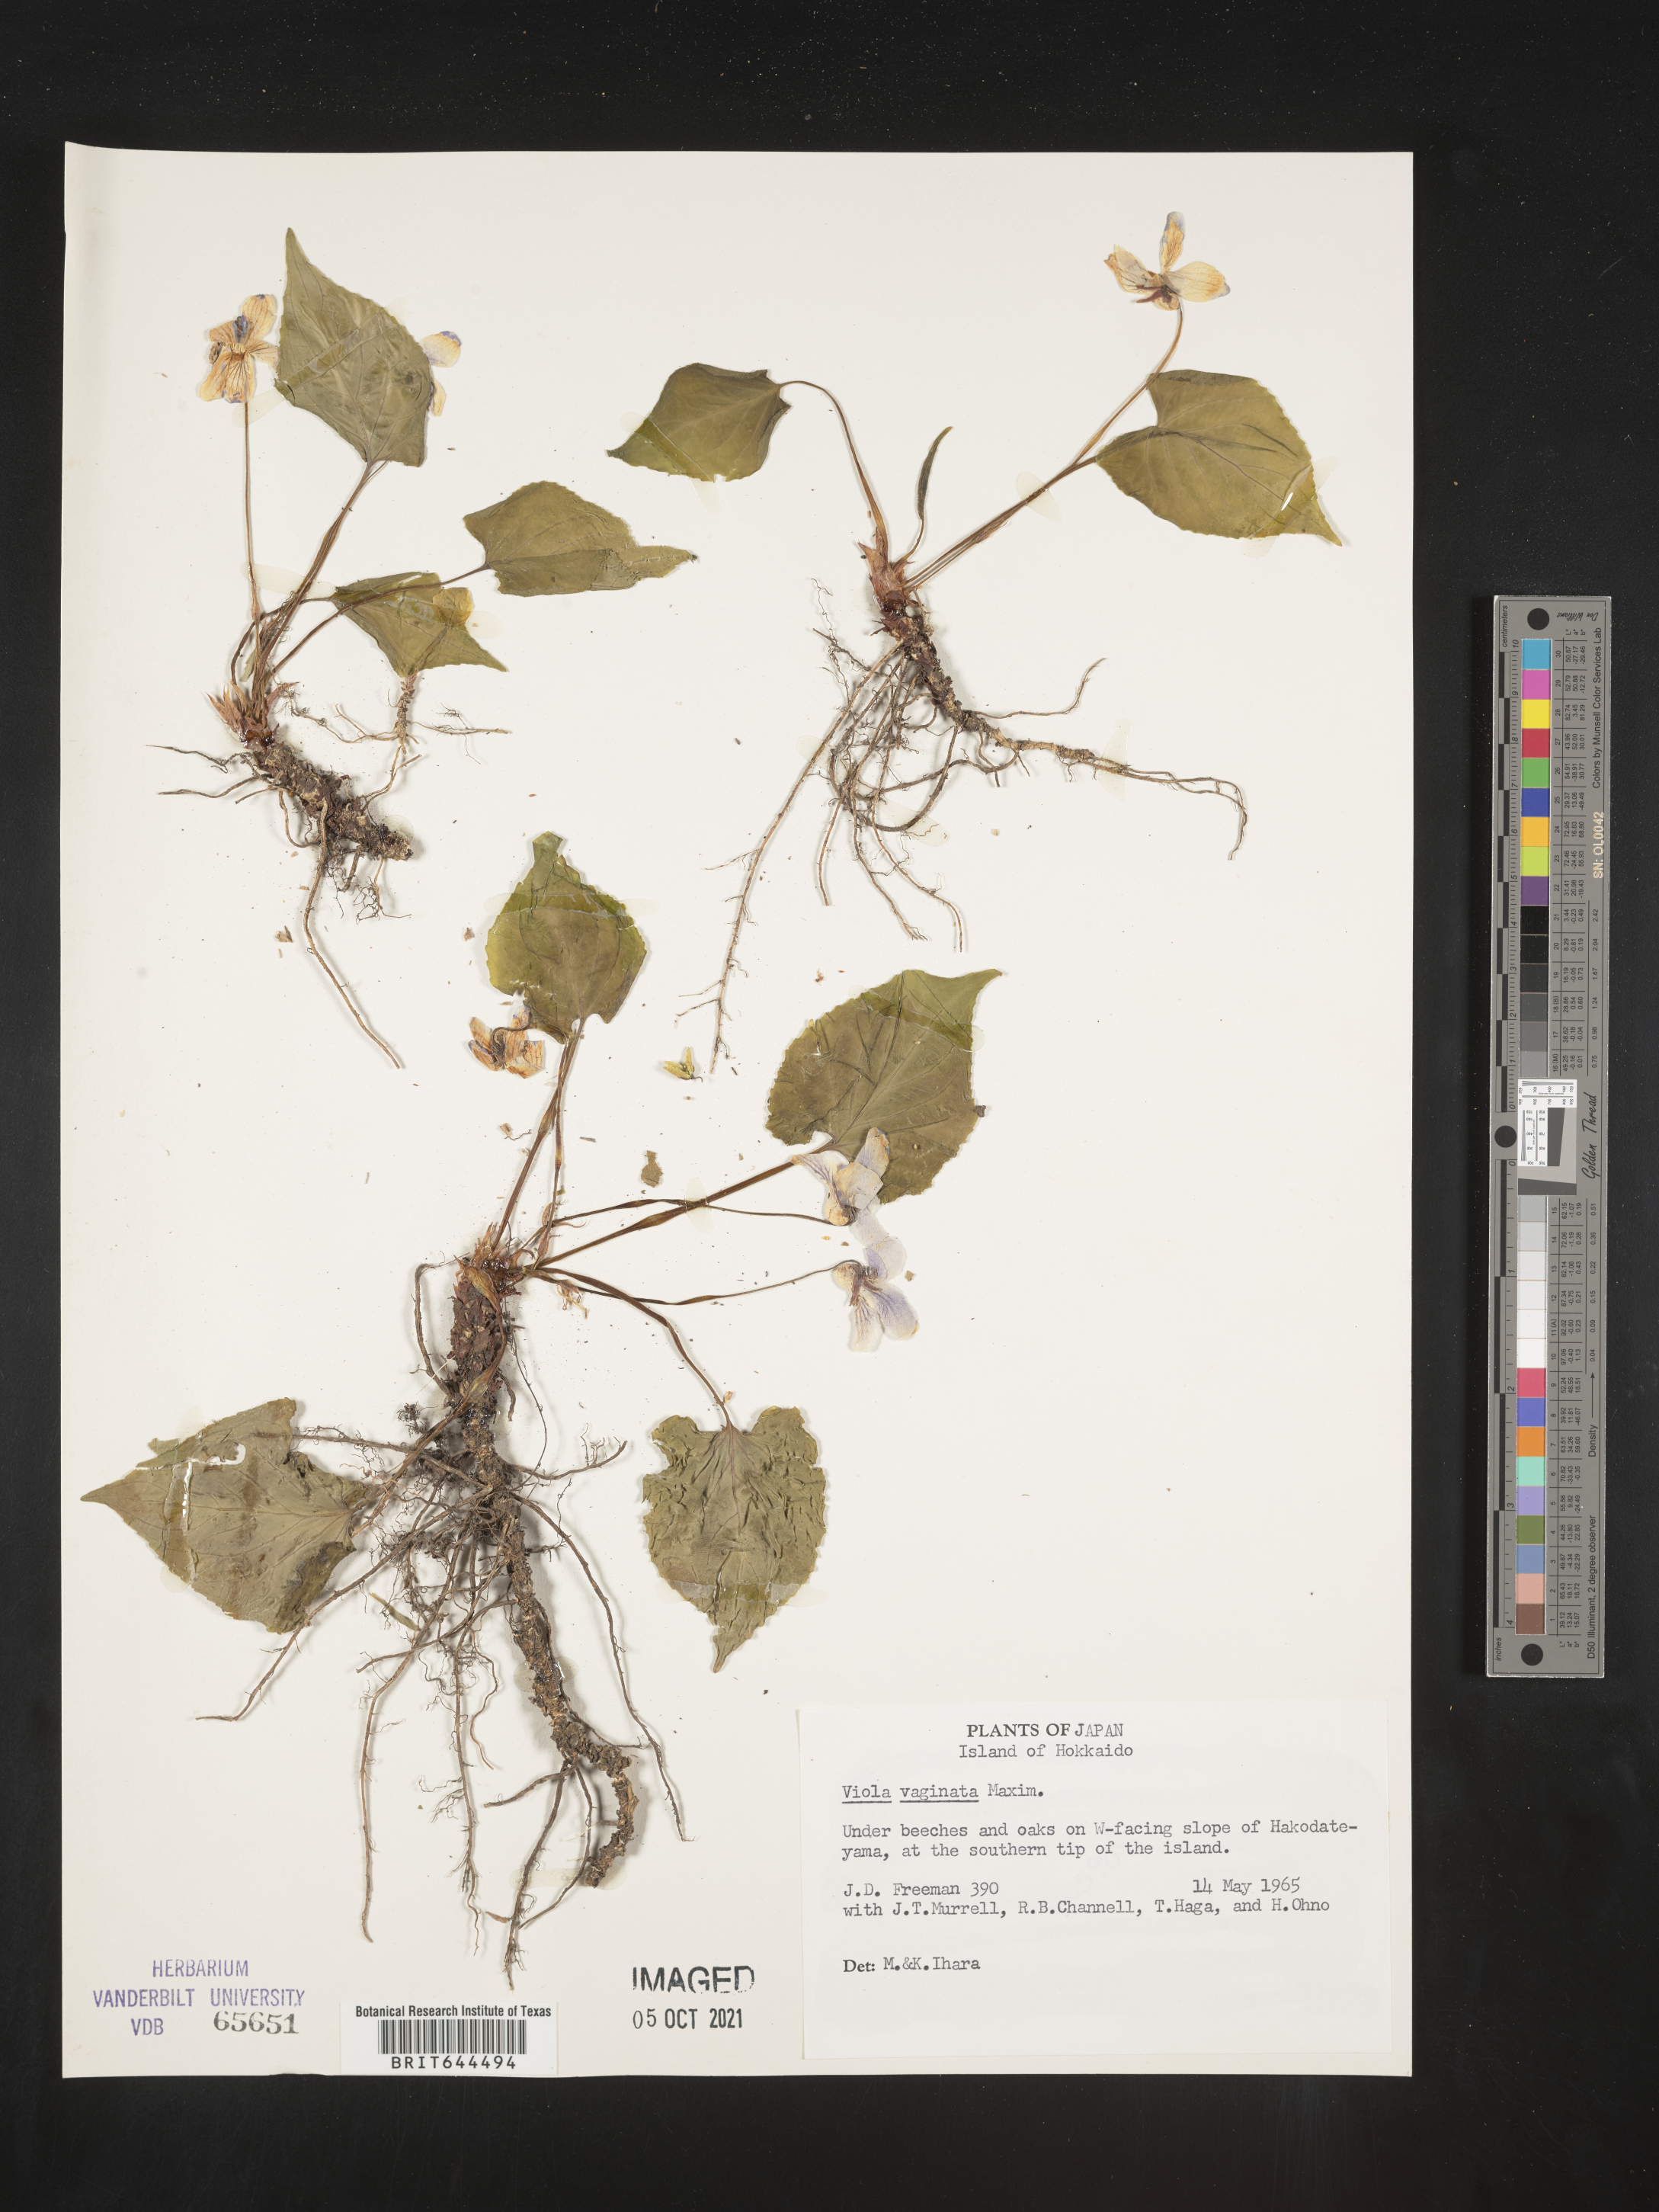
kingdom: Plantae
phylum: Tracheophyta
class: Magnoliopsida
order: Malpighiales
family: Violaceae
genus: Viola
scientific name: Viola
